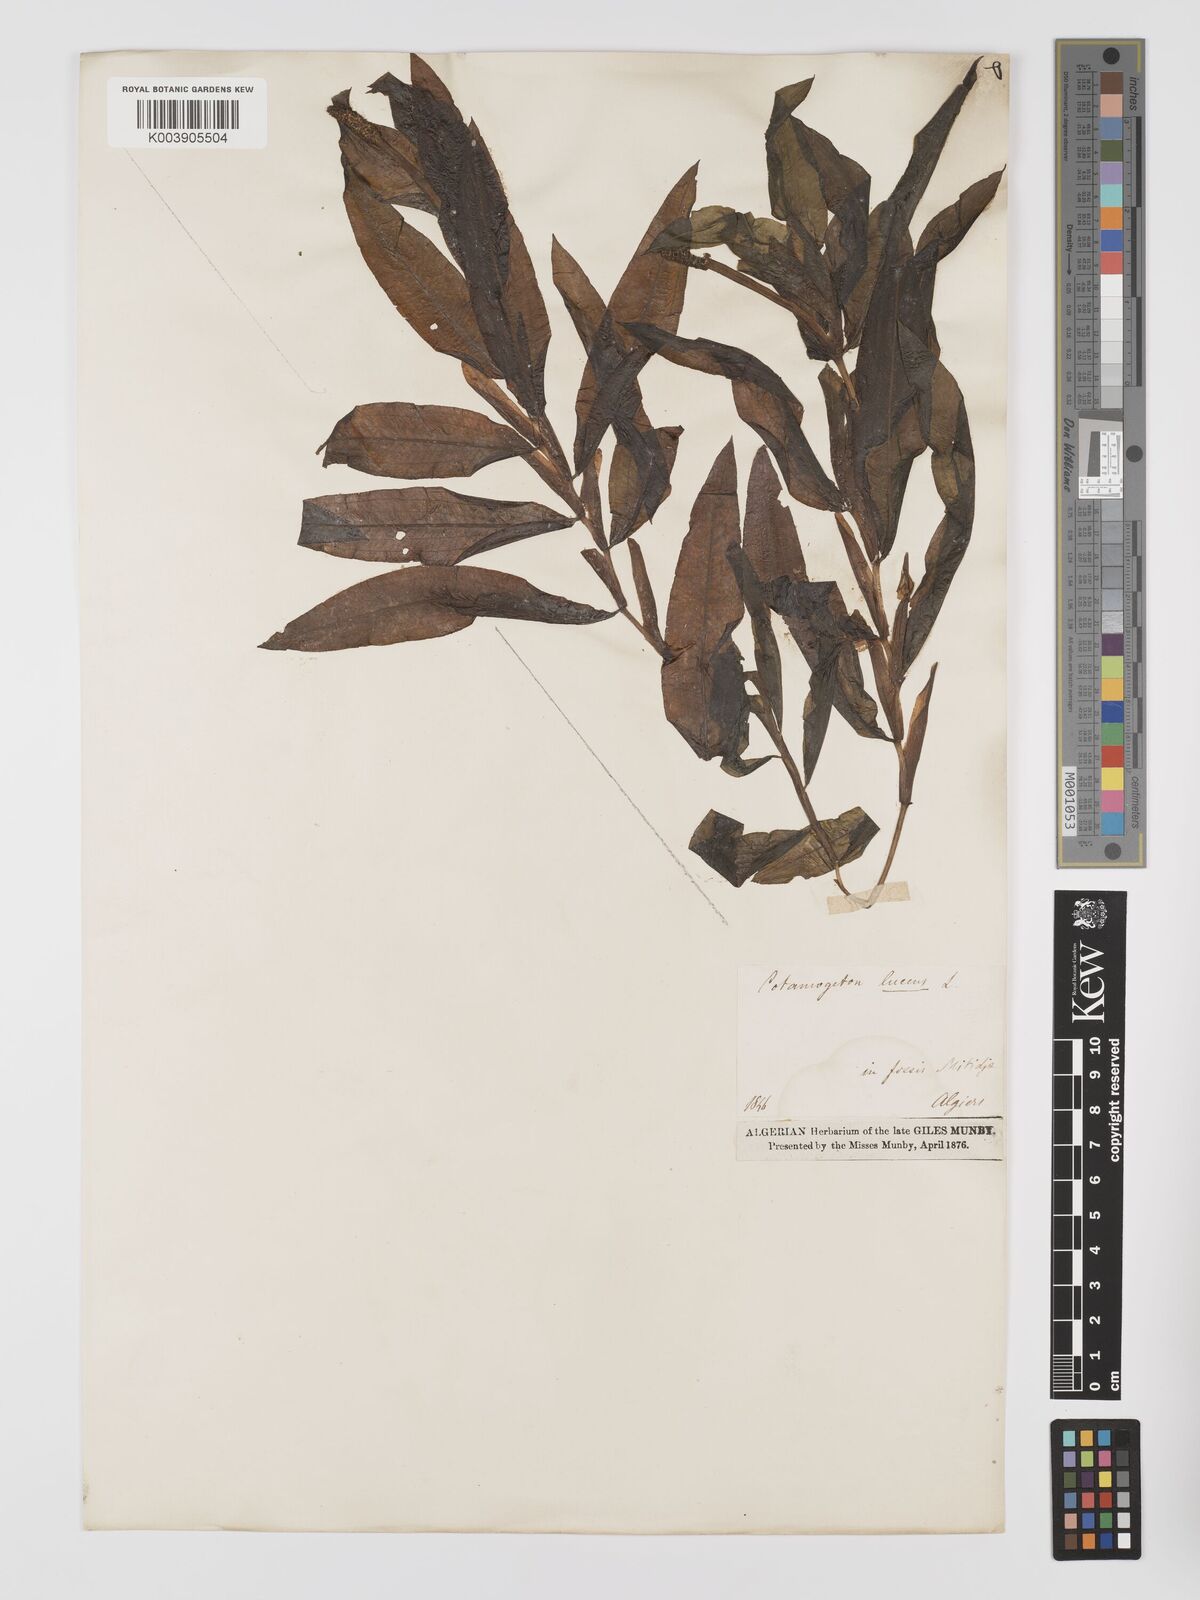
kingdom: Plantae
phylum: Tracheophyta
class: Liliopsida
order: Alismatales
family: Potamogetonaceae
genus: Potamogeton
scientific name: Potamogeton schweinfurthii
